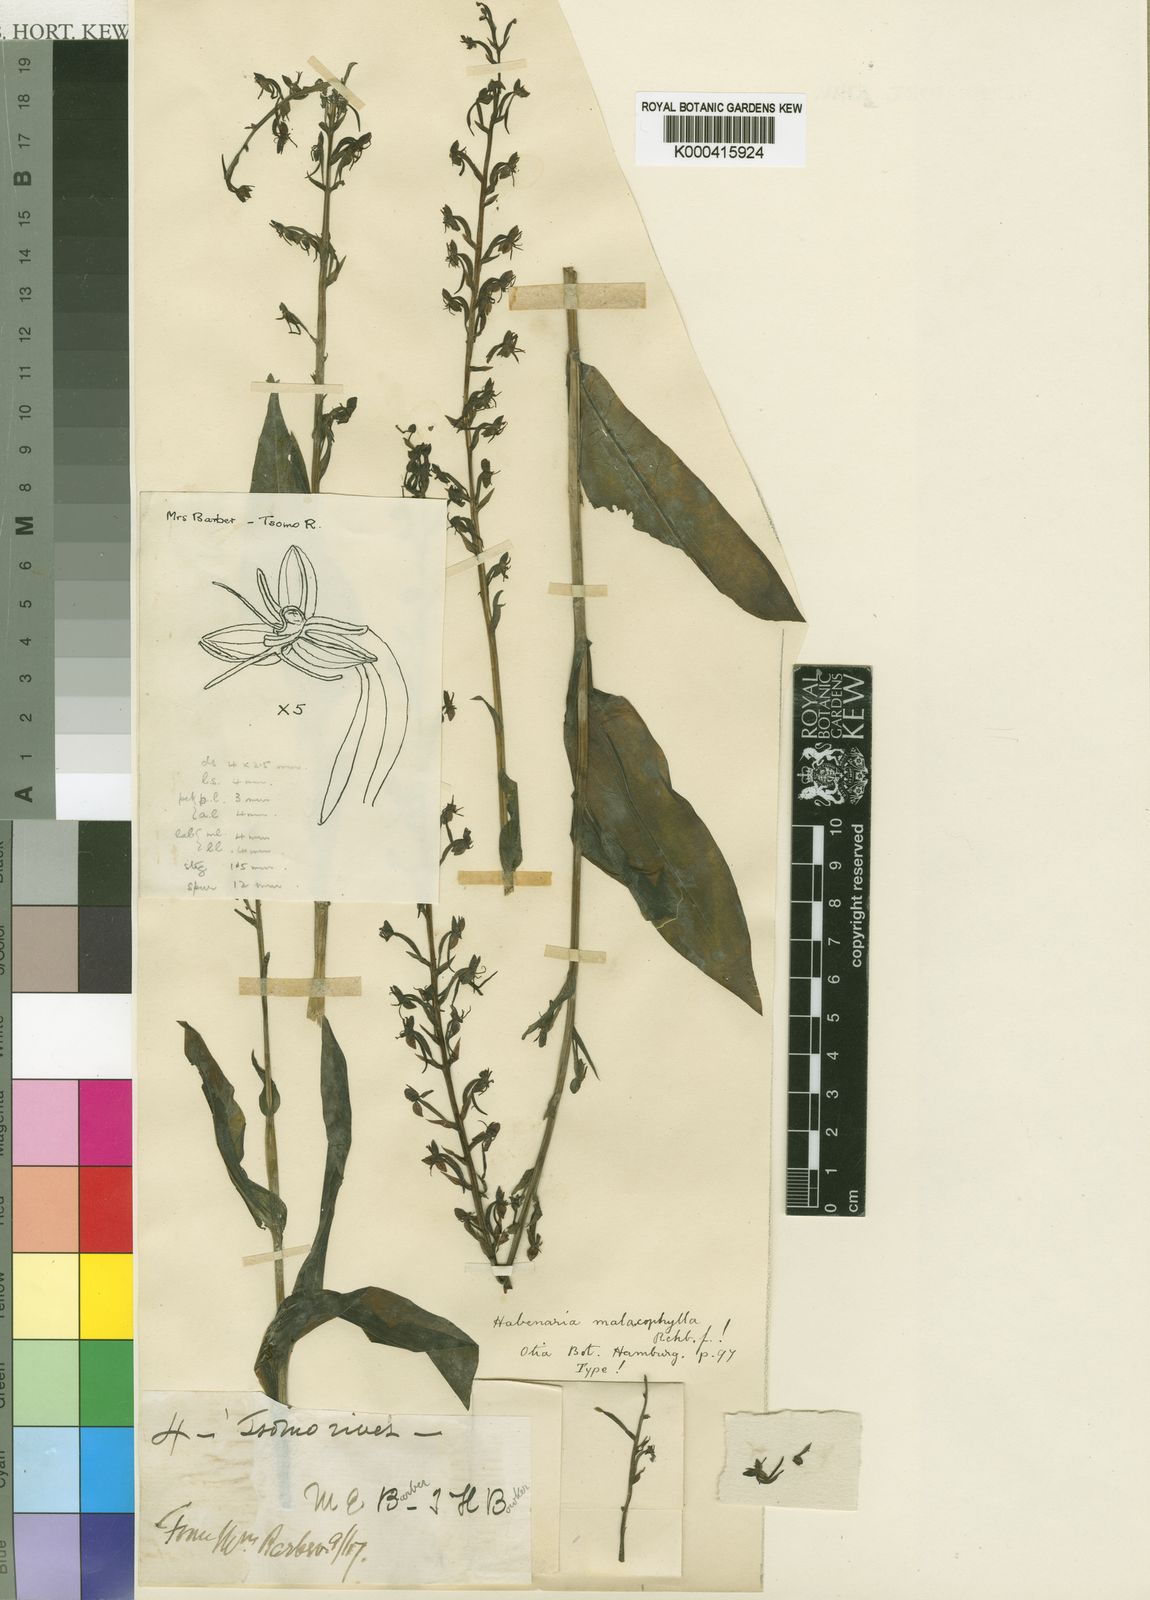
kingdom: Plantae
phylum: Tracheophyta
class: Liliopsida
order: Asparagales
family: Orchidaceae
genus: Habenaria
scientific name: Habenaria malacophylla
